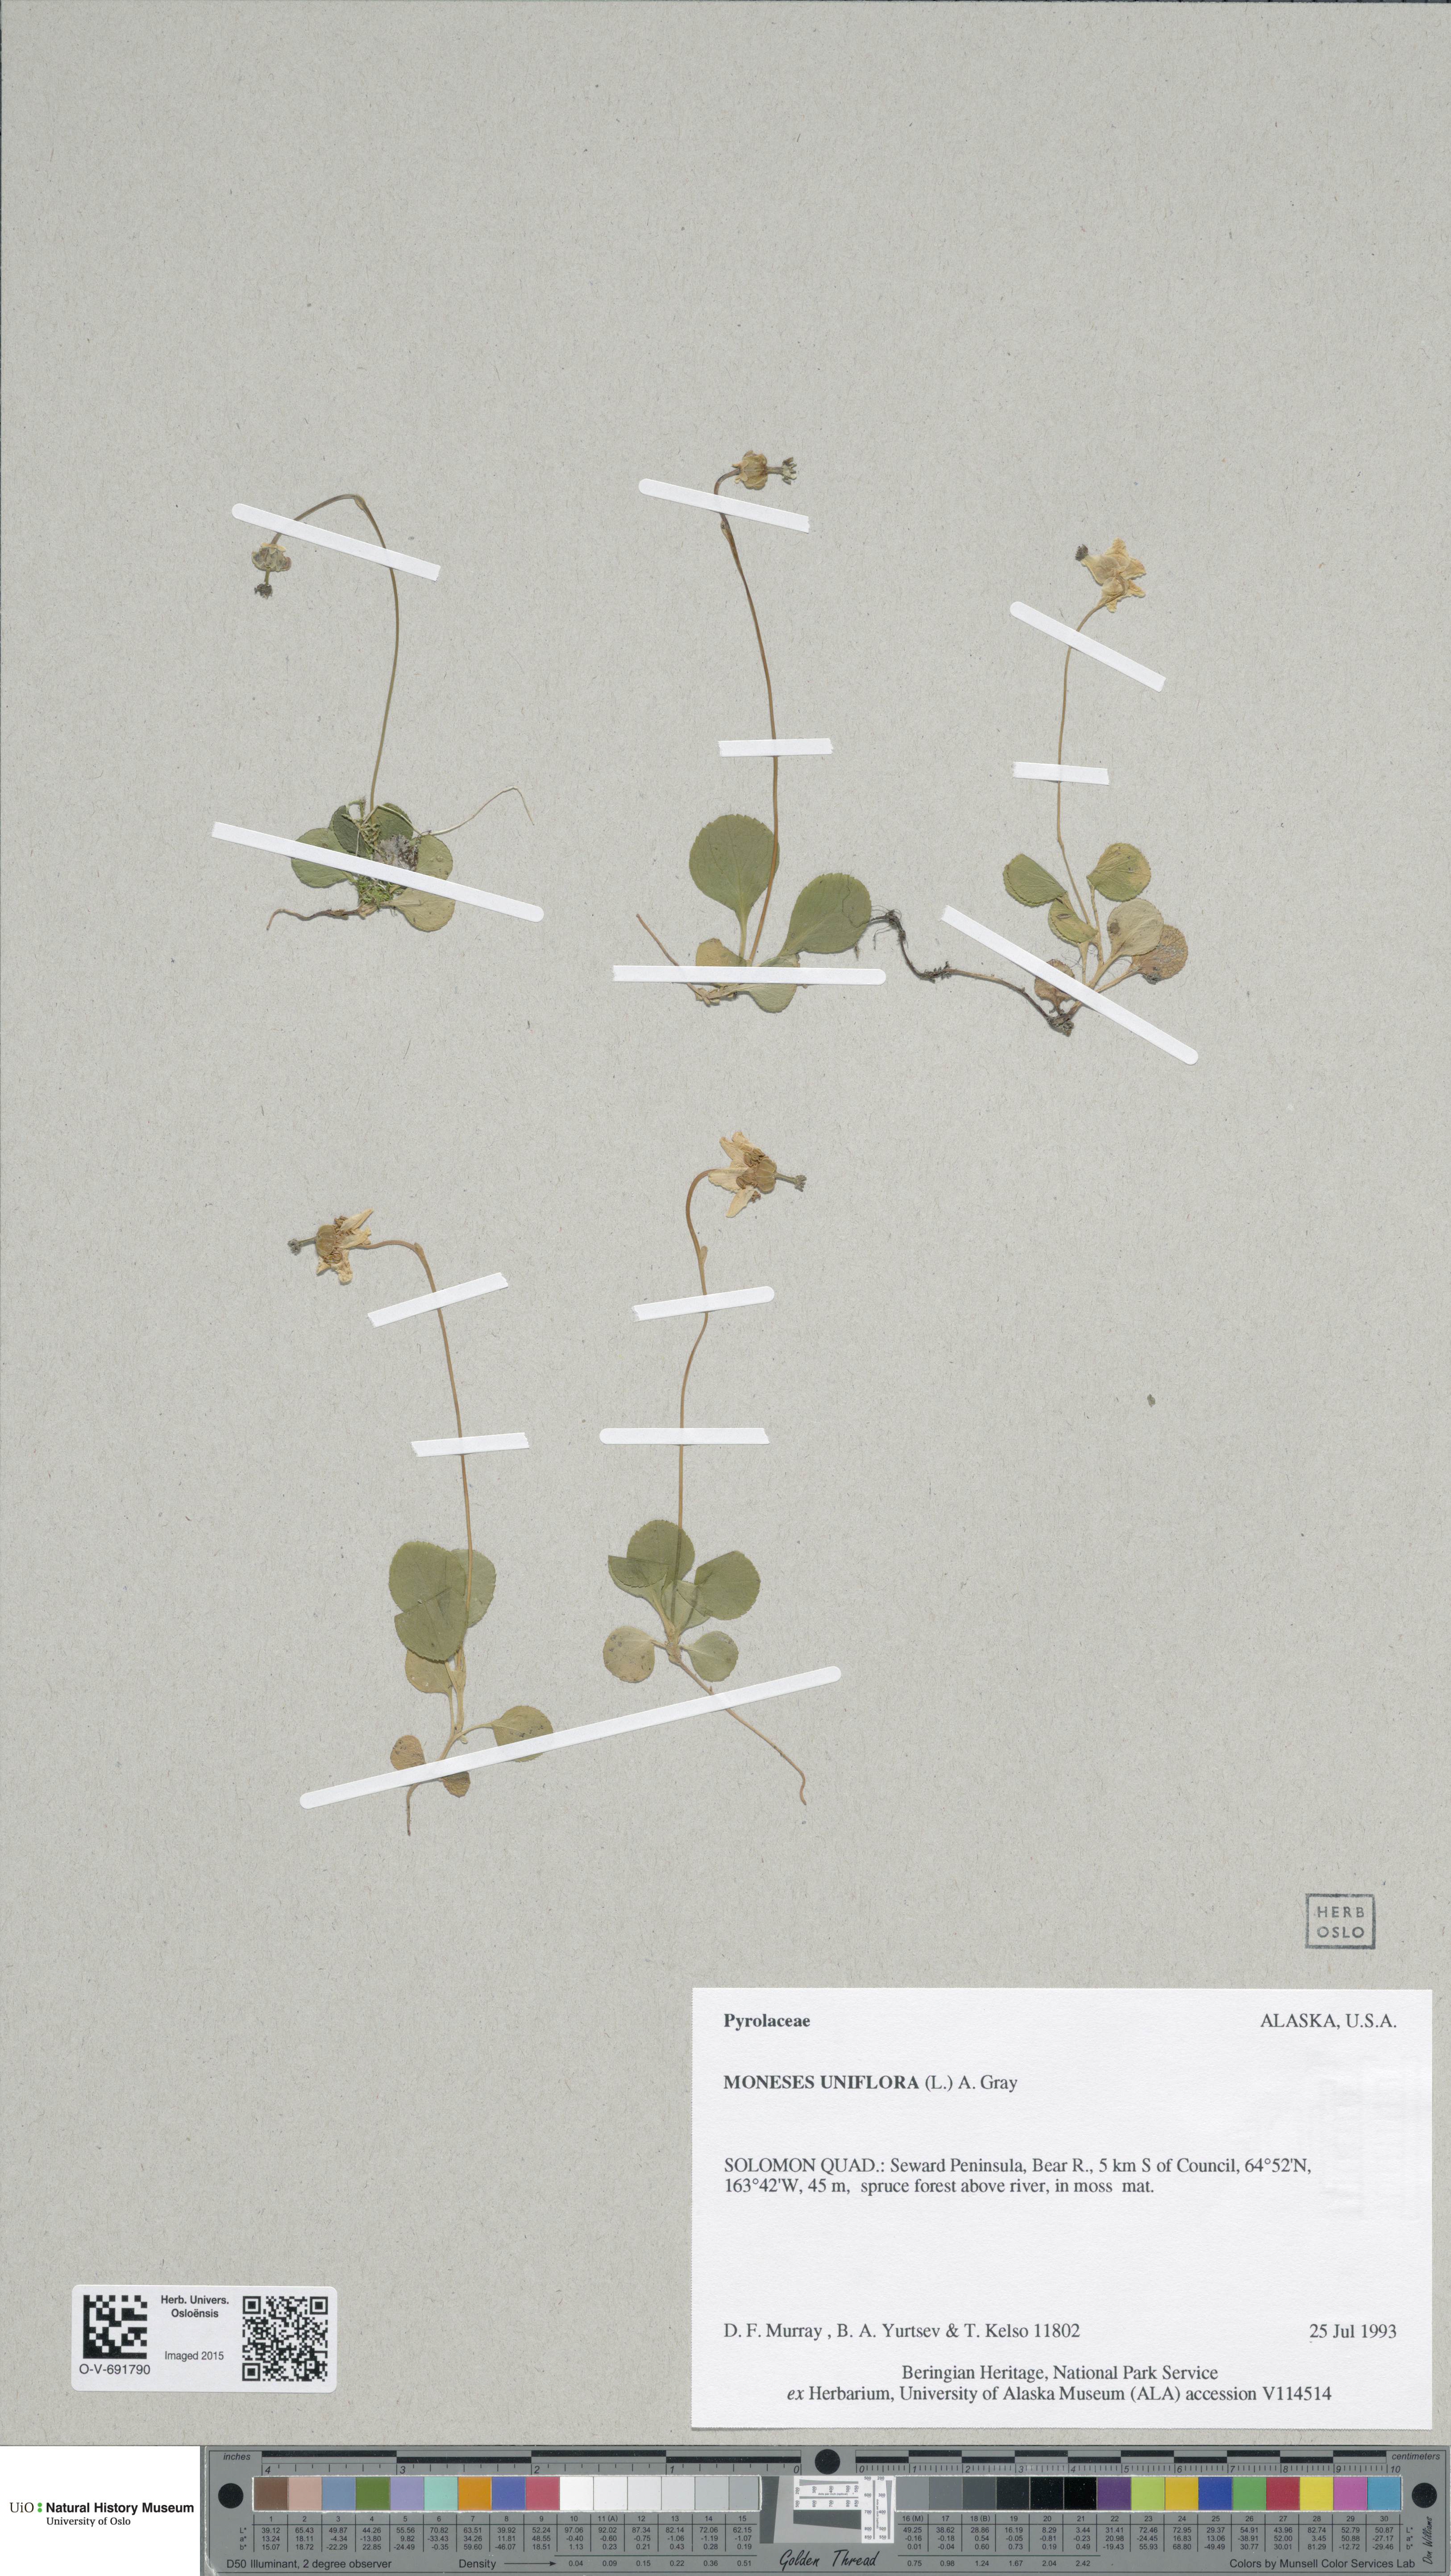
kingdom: Plantae
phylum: Tracheophyta
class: Magnoliopsida
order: Ericales
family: Ericaceae
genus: Moneses
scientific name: Moneses uniflora
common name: One-flowered wintergreen
